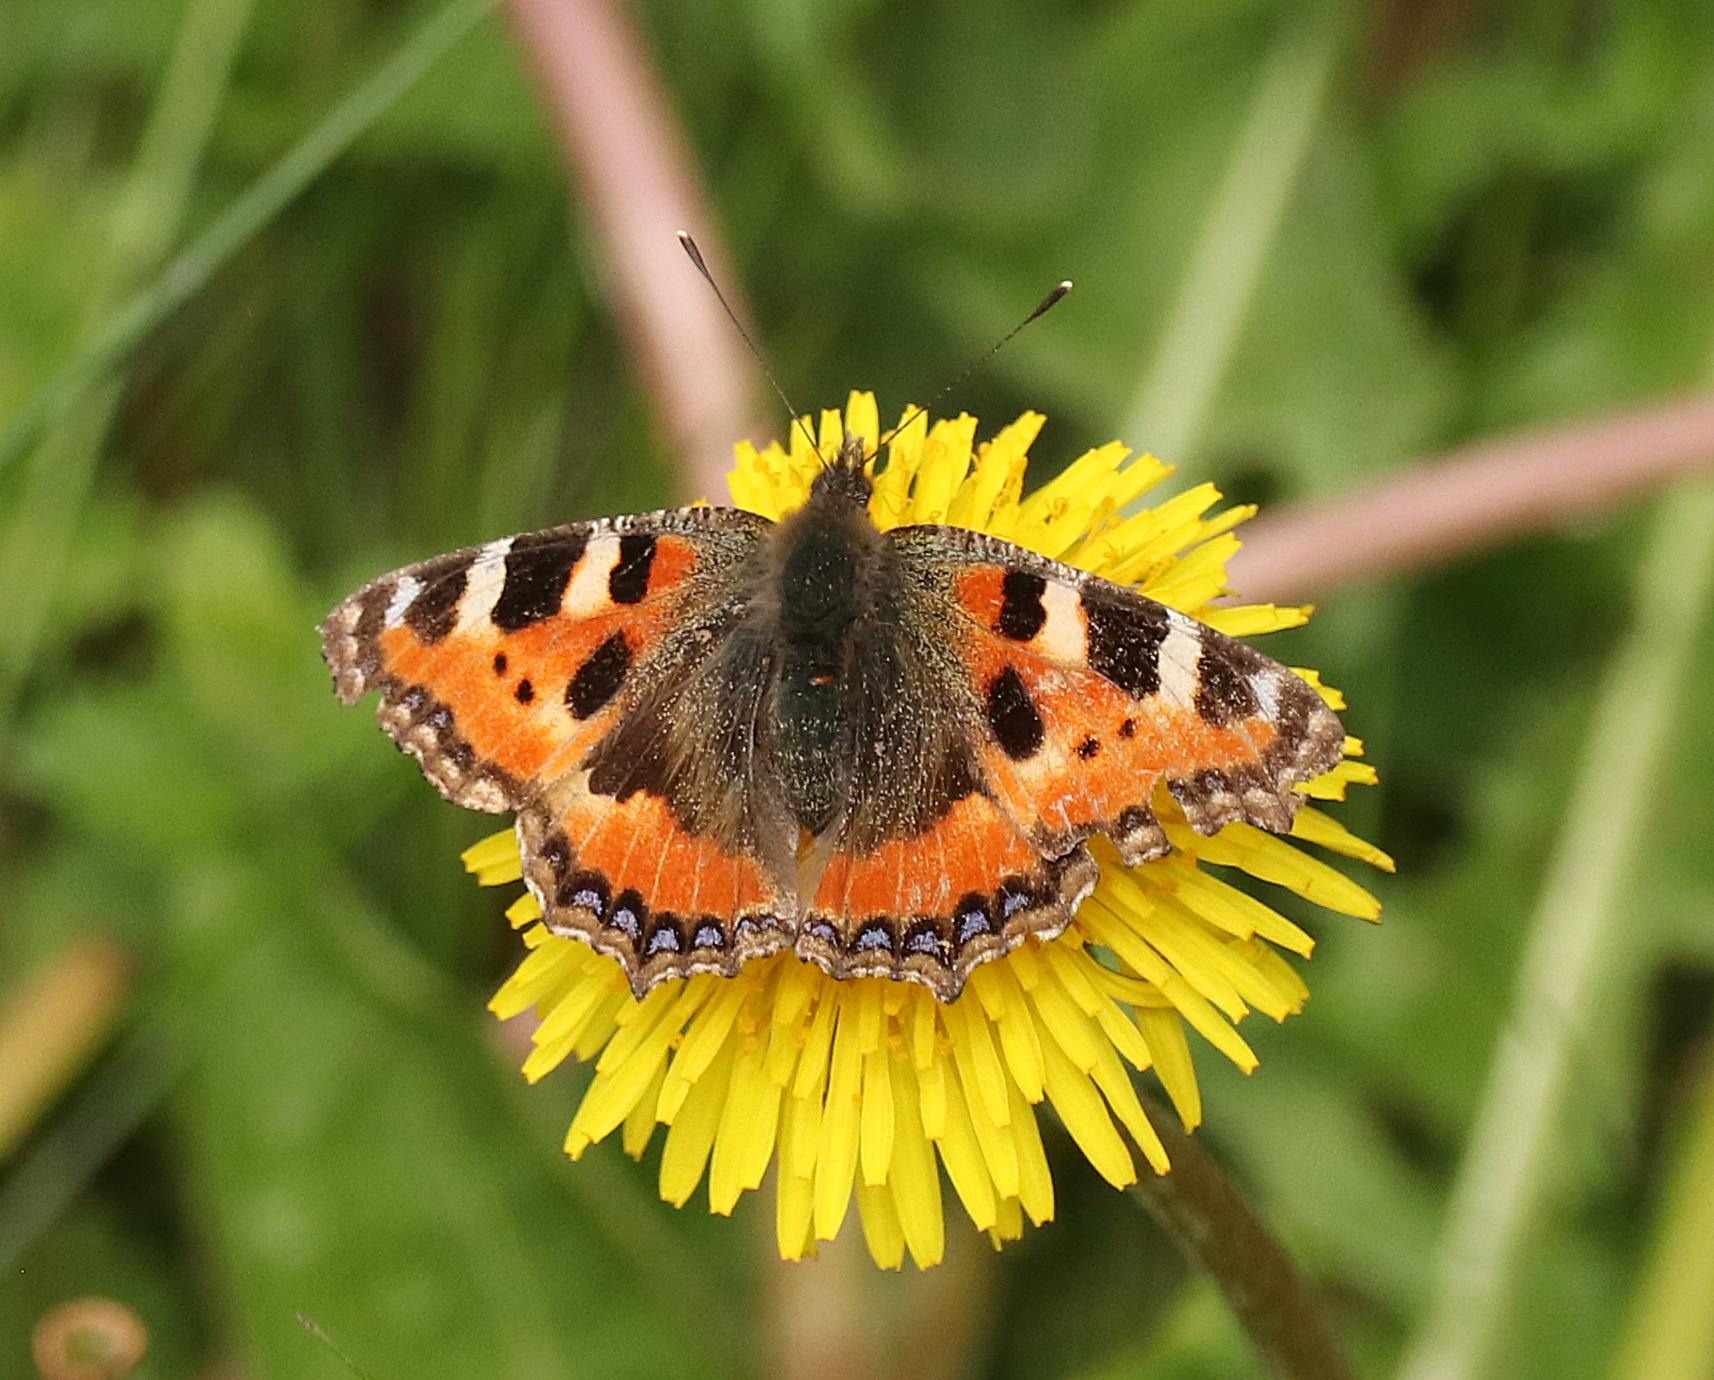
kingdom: Animalia
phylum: Arthropoda
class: Insecta
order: Lepidoptera
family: Nymphalidae
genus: Aglais
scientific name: Aglais urticae
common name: Nældens takvinge
